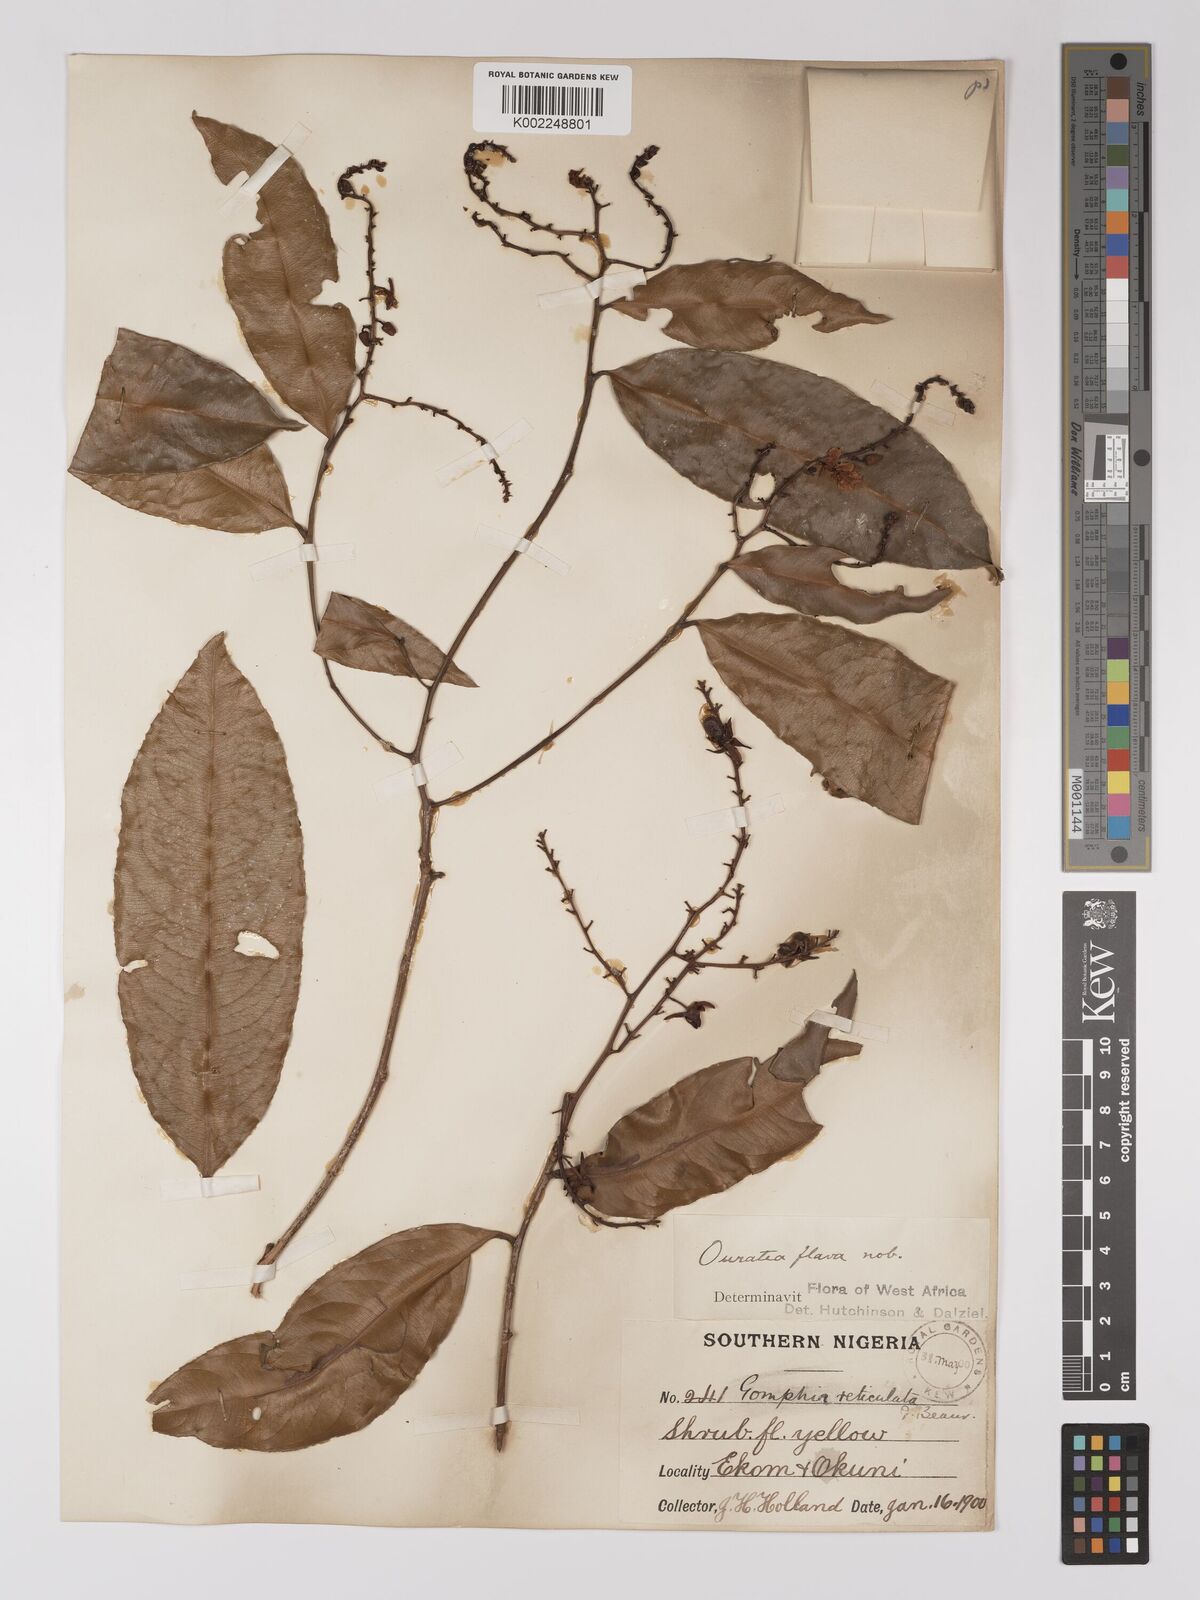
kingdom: Plantae
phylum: Tracheophyta
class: Magnoliopsida
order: Malpighiales
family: Ochnaceae
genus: Campylospermum
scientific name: Campylospermum flavum
